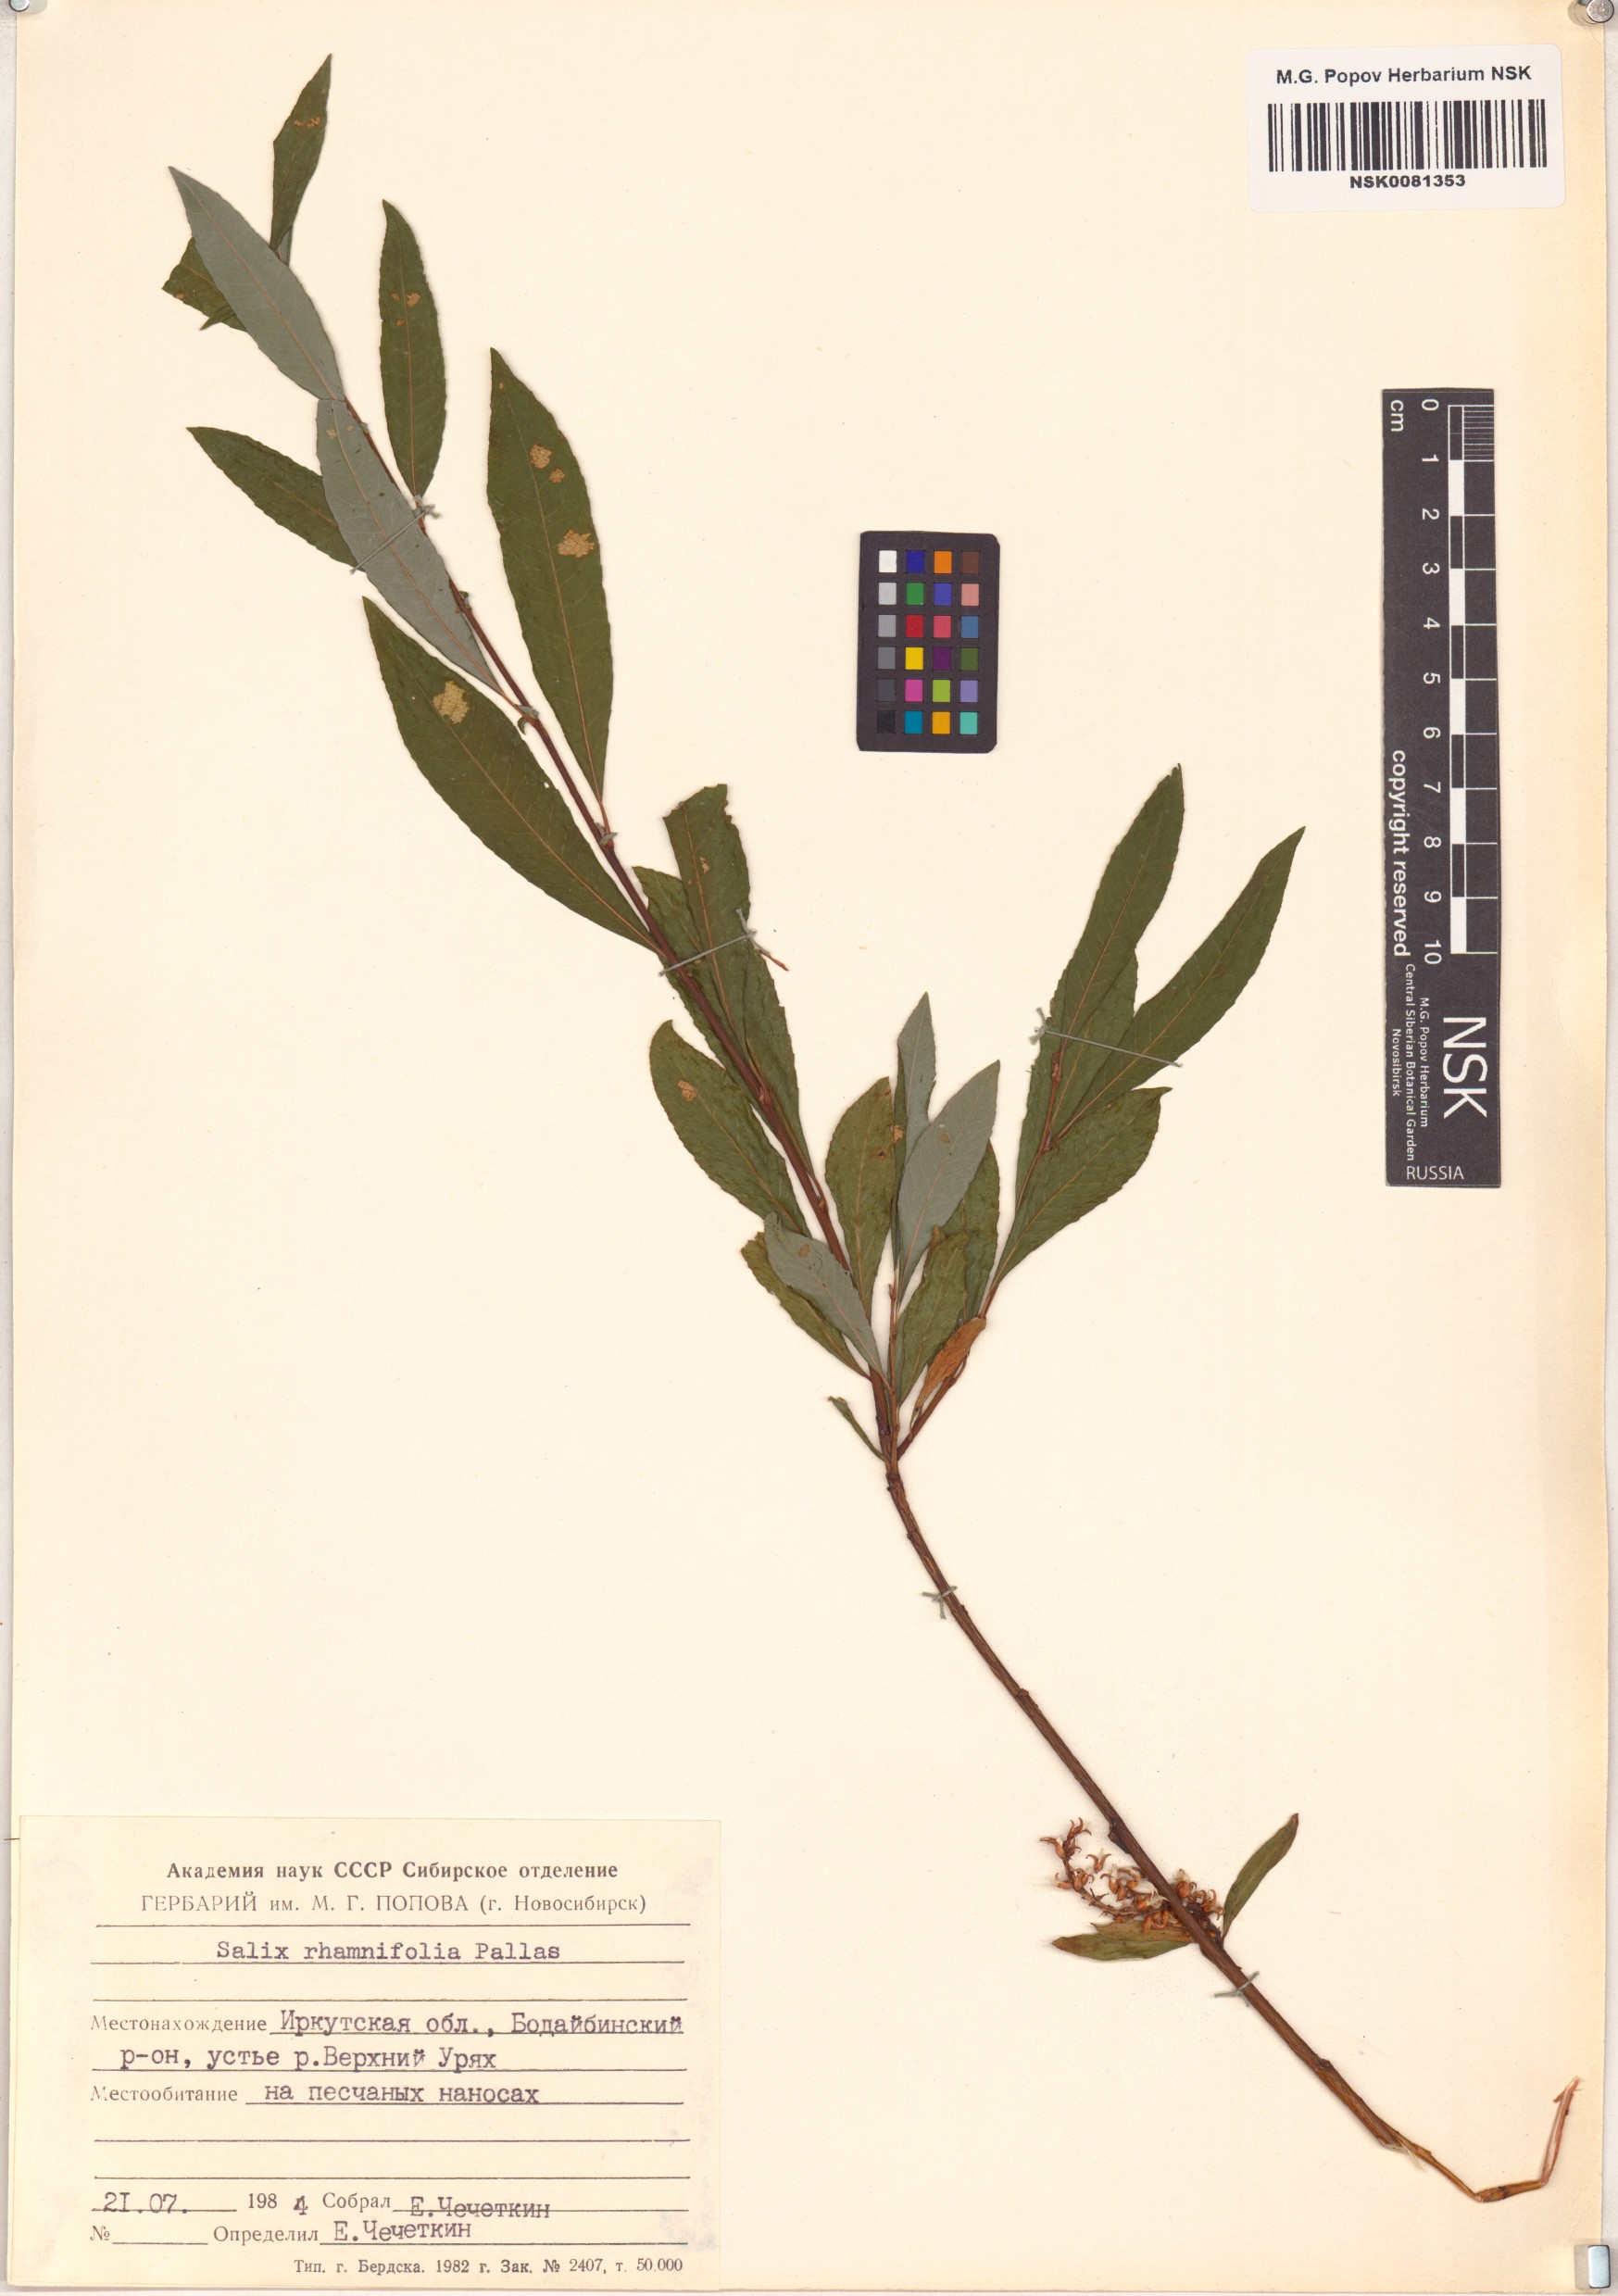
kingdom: Plantae
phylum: Tracheophyta
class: Magnoliopsida
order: Malpighiales
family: Salicaceae
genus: Salix
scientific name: Salix rhamnifolia
